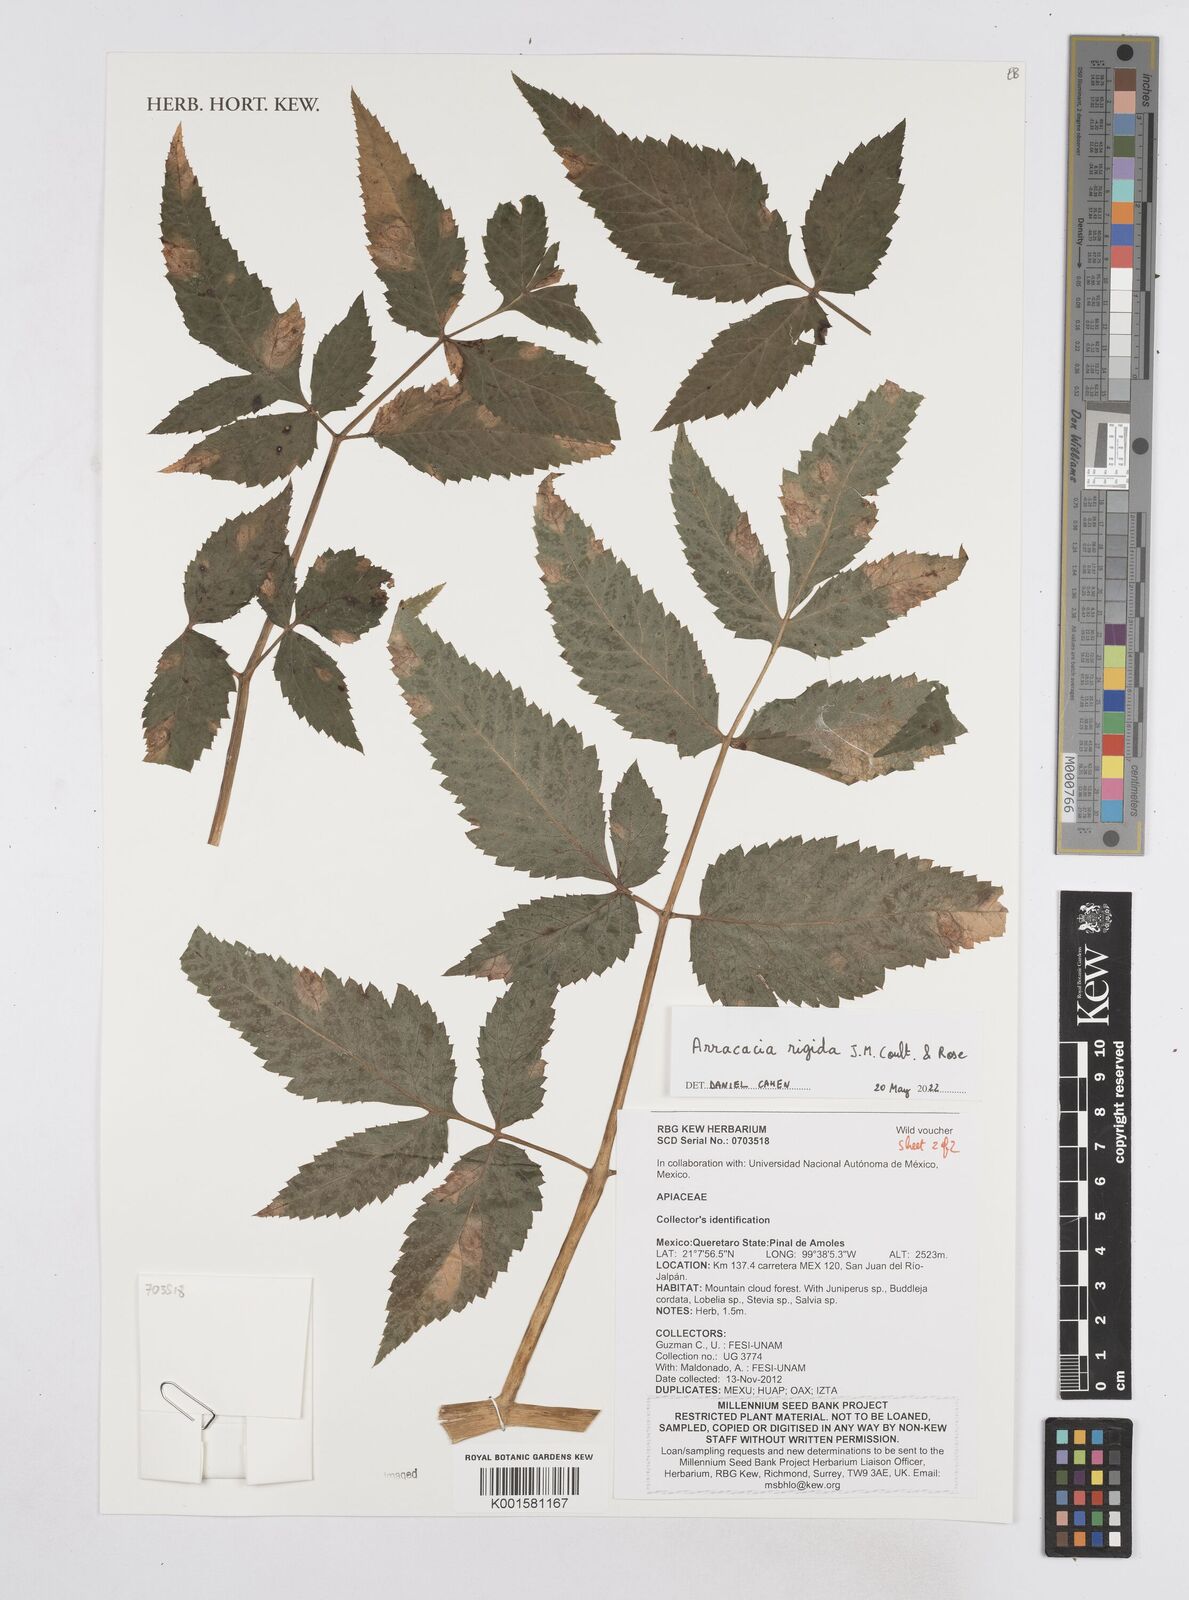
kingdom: Plantae
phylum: Tracheophyta
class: Magnoliopsida
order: Apiales
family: Apiaceae
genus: Arracacia
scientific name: Arracacia rigida
